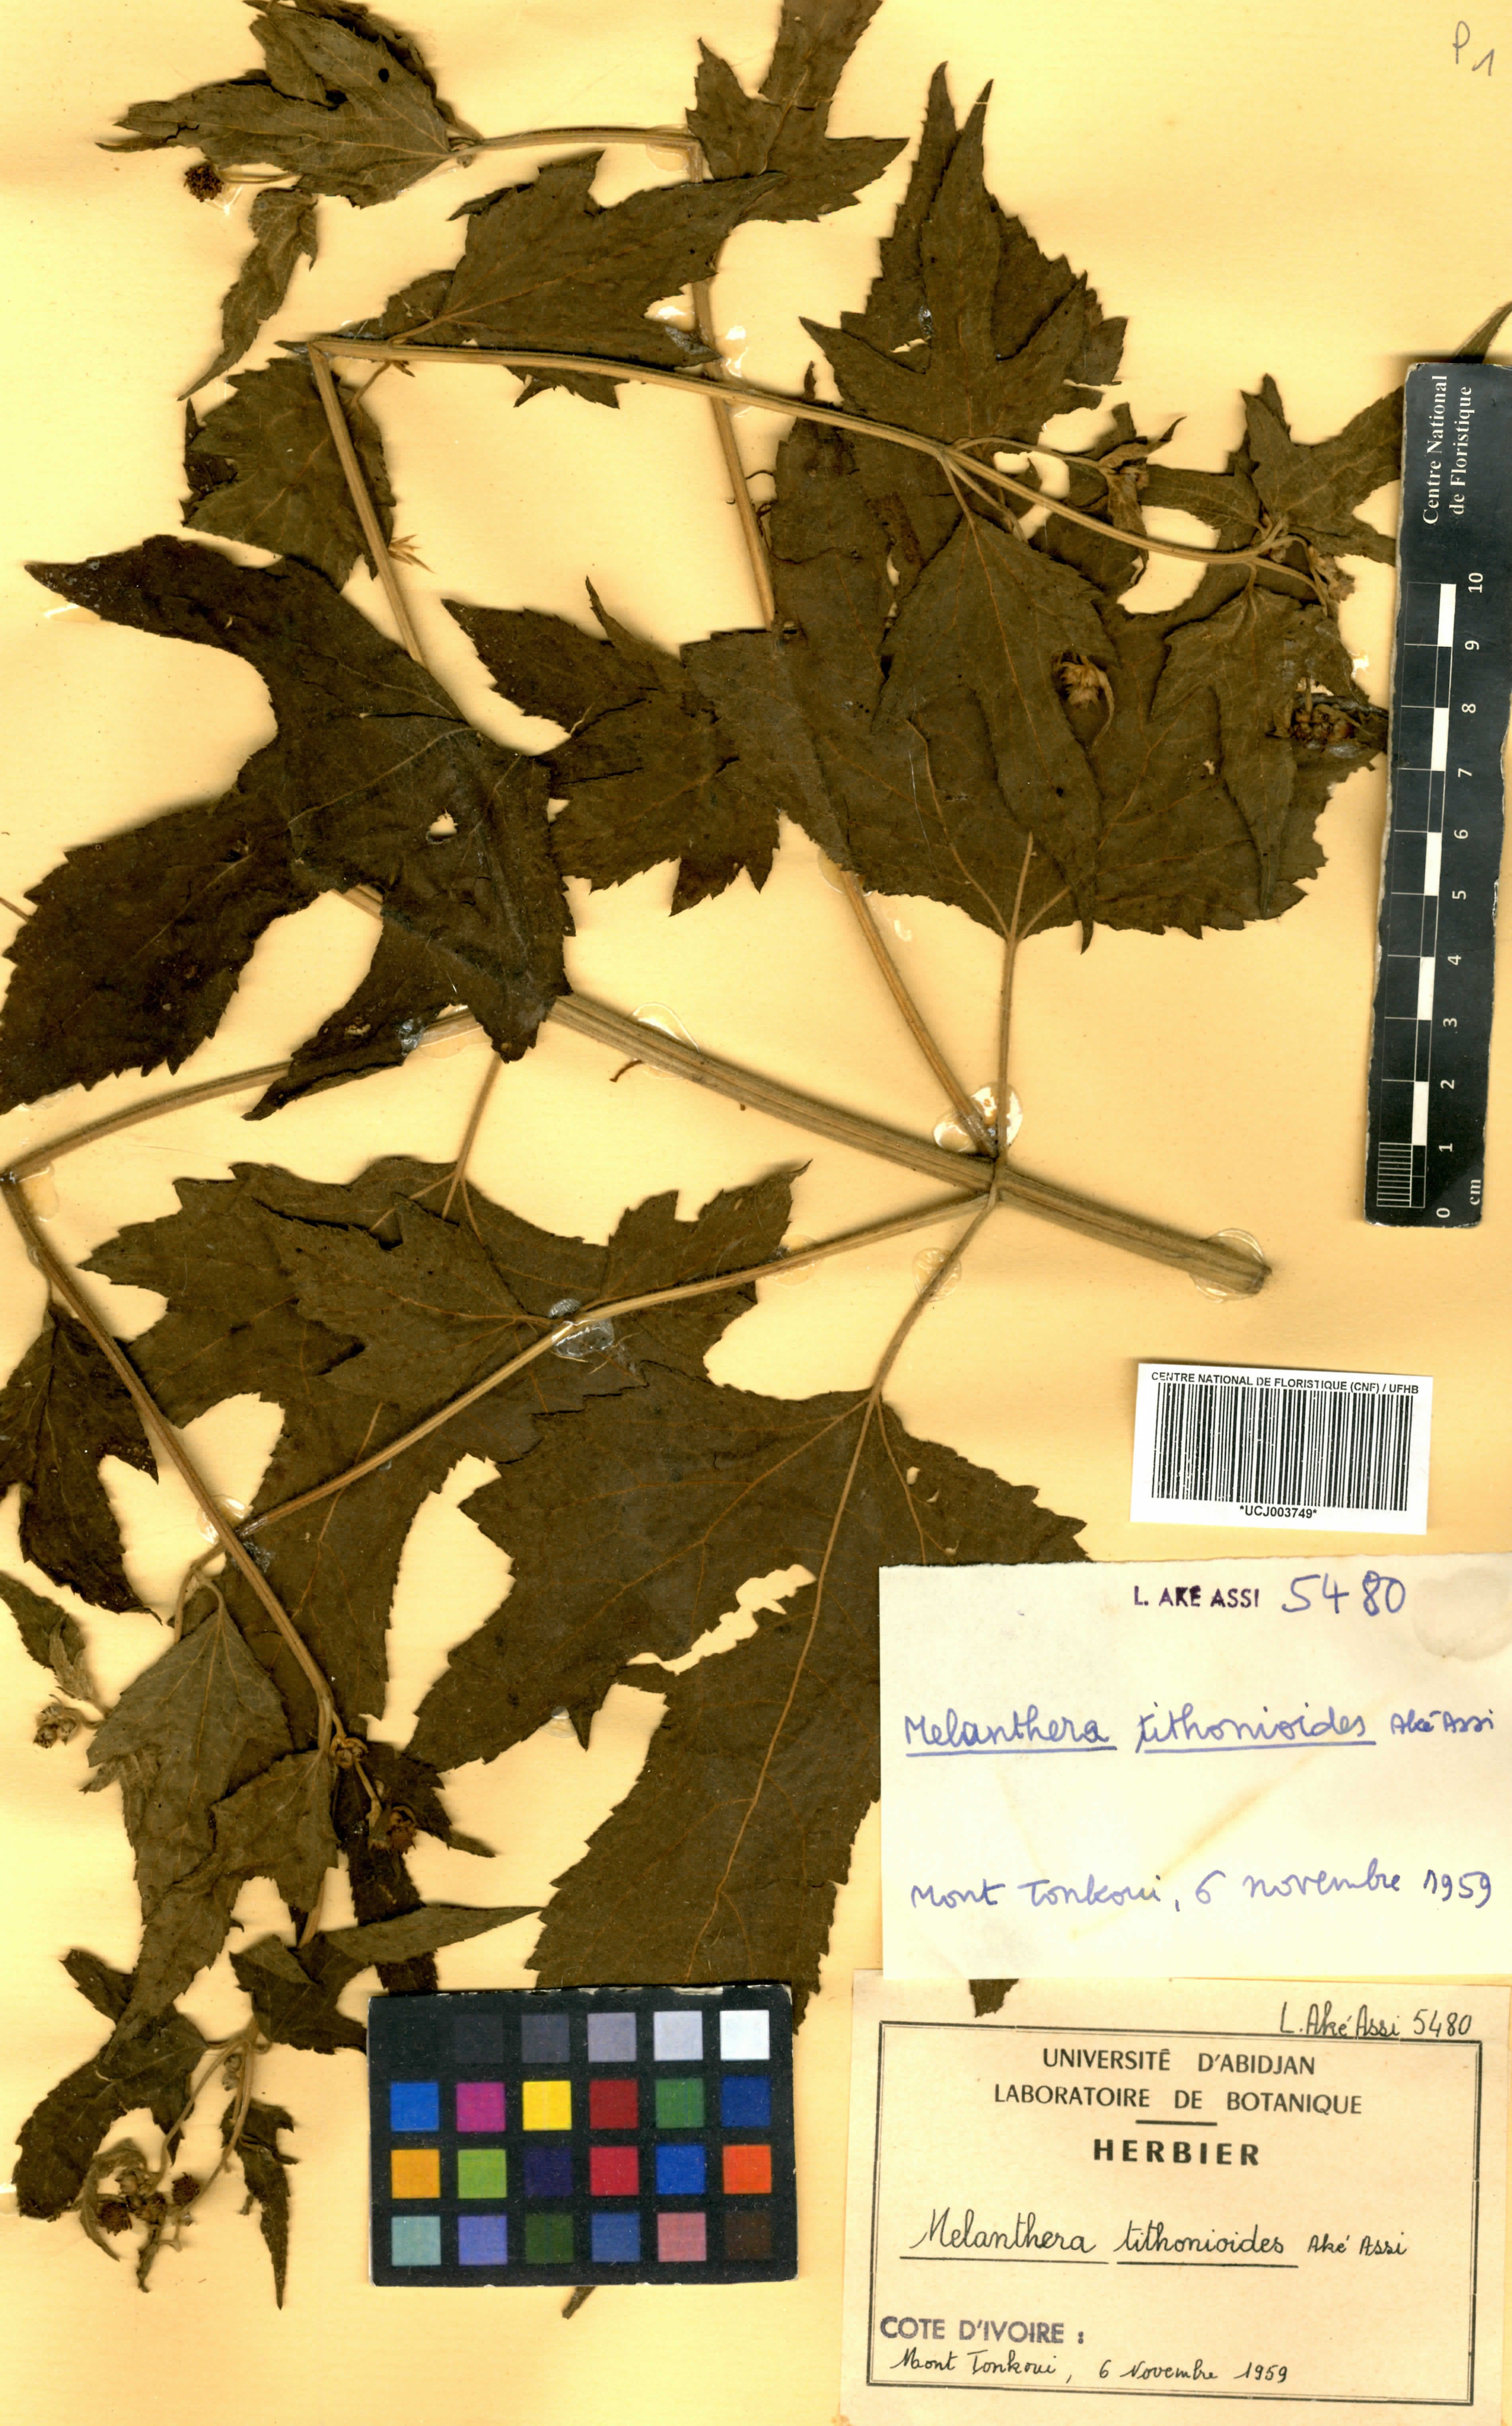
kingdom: Plantae
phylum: Tracheophyta
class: Magnoliopsida
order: Asterales
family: Asteraceae
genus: Lipotriche
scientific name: Lipotriche tithonioides
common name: Simandou daisy
